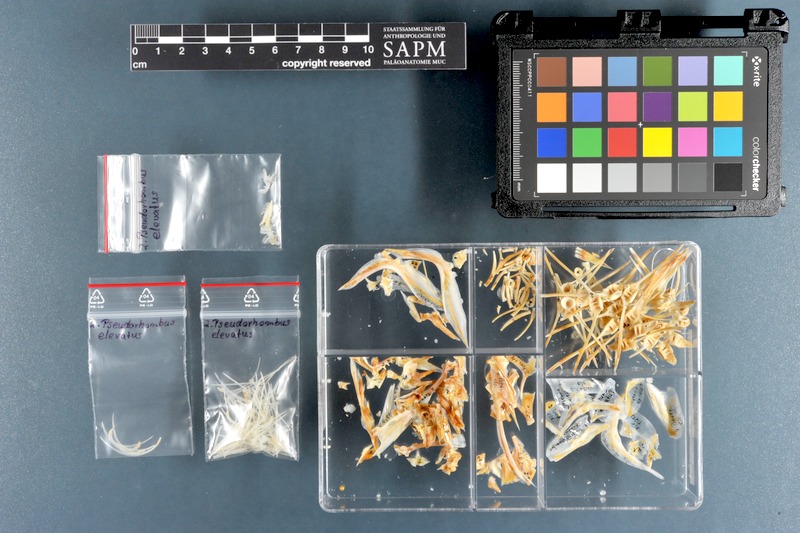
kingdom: Animalia
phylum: Chordata
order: Pleuronectiformes
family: Paralichthyidae
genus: Pseudorhombus
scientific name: Pseudorhombus elevatus
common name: Deep flounder
